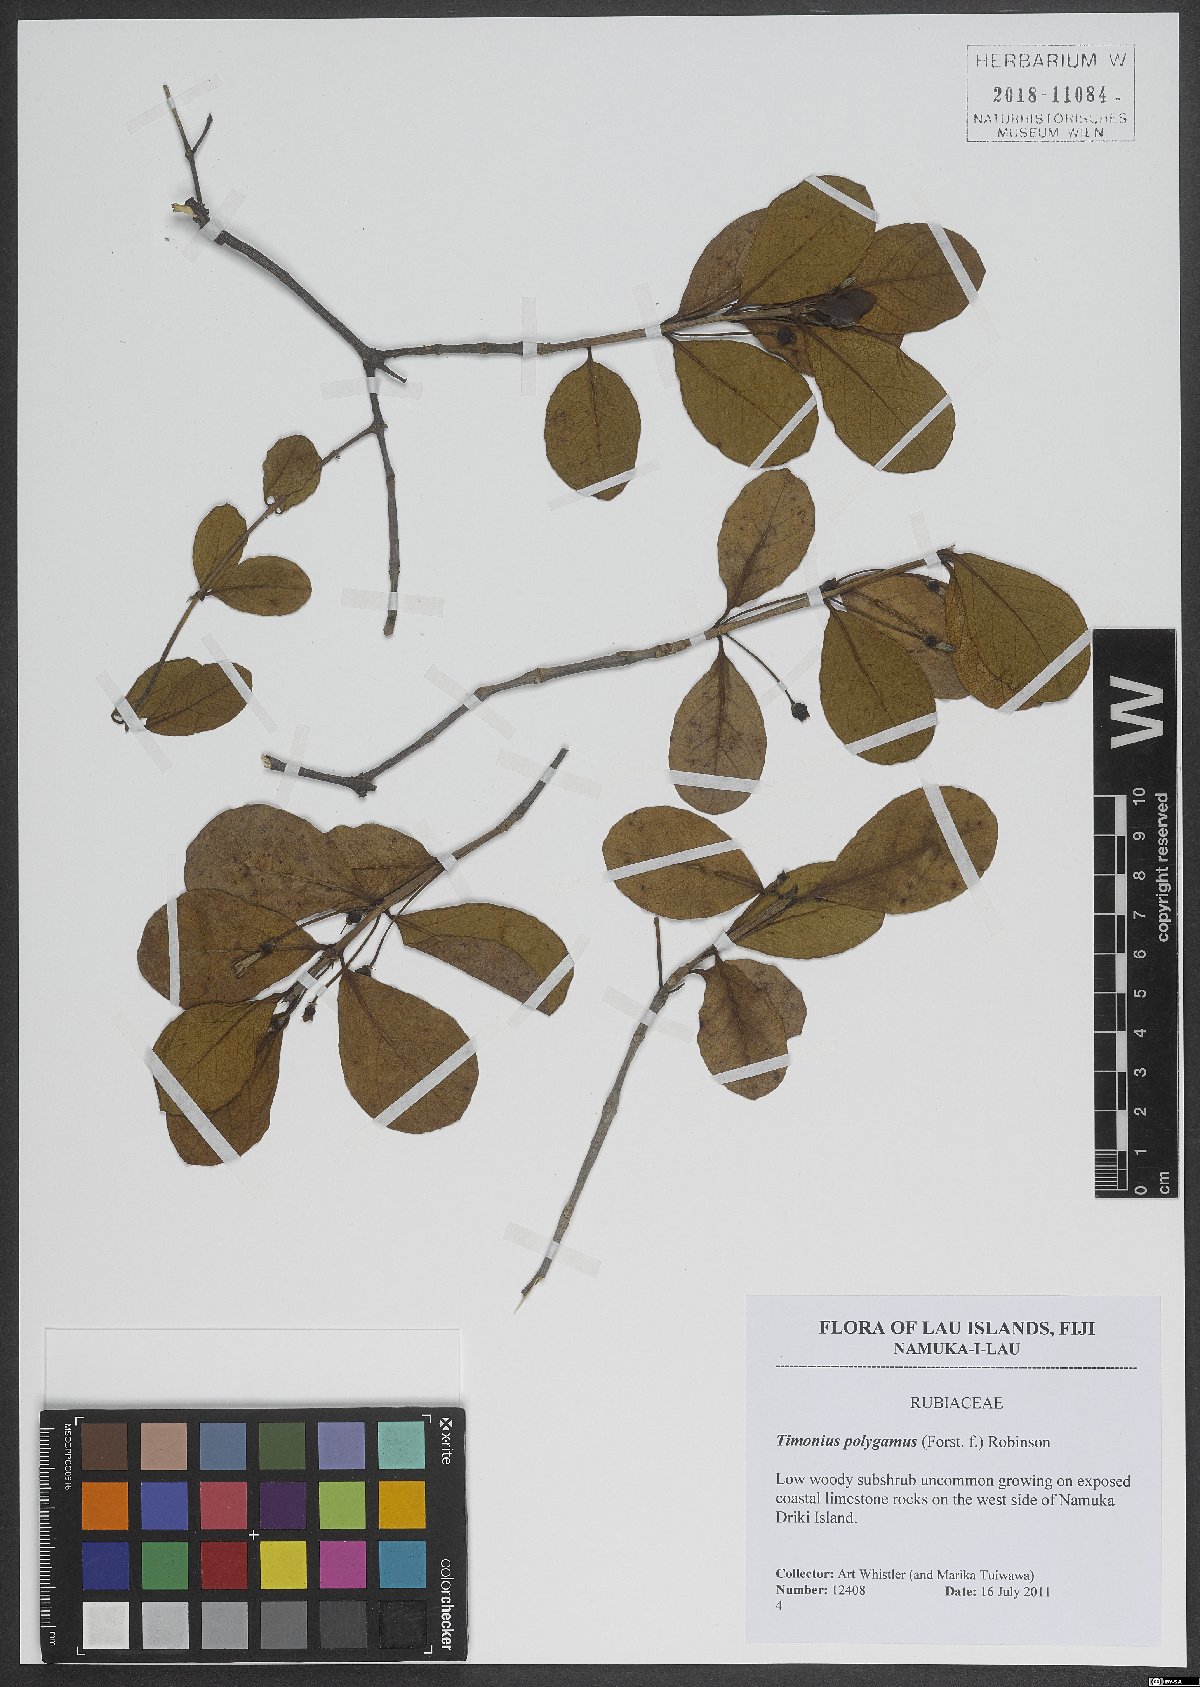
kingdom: Plantae
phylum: Tracheophyta
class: Magnoliopsida
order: Gentianales
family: Rubiaceae
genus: Timonius
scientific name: Timonius uniflorus
